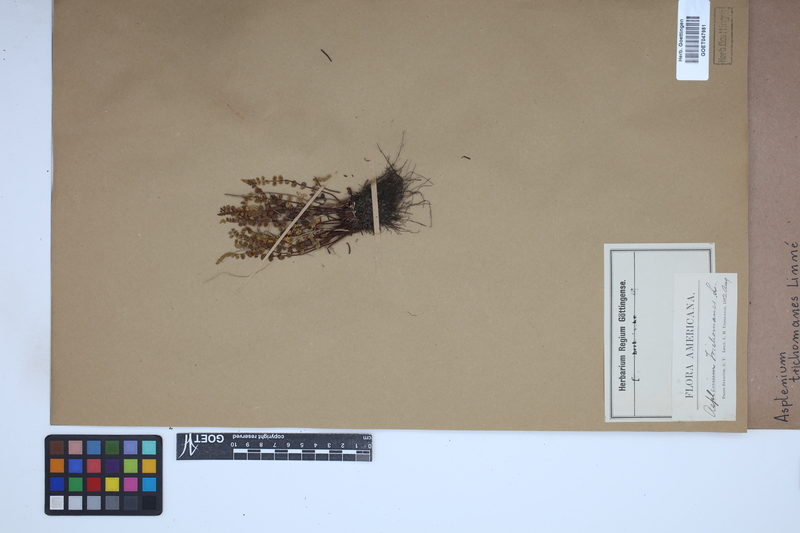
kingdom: Plantae
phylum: Tracheophyta
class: Polypodiopsida
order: Polypodiales
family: Aspleniaceae
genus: Asplenium
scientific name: Asplenium trichomanes
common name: Maidenhair spleenwort
